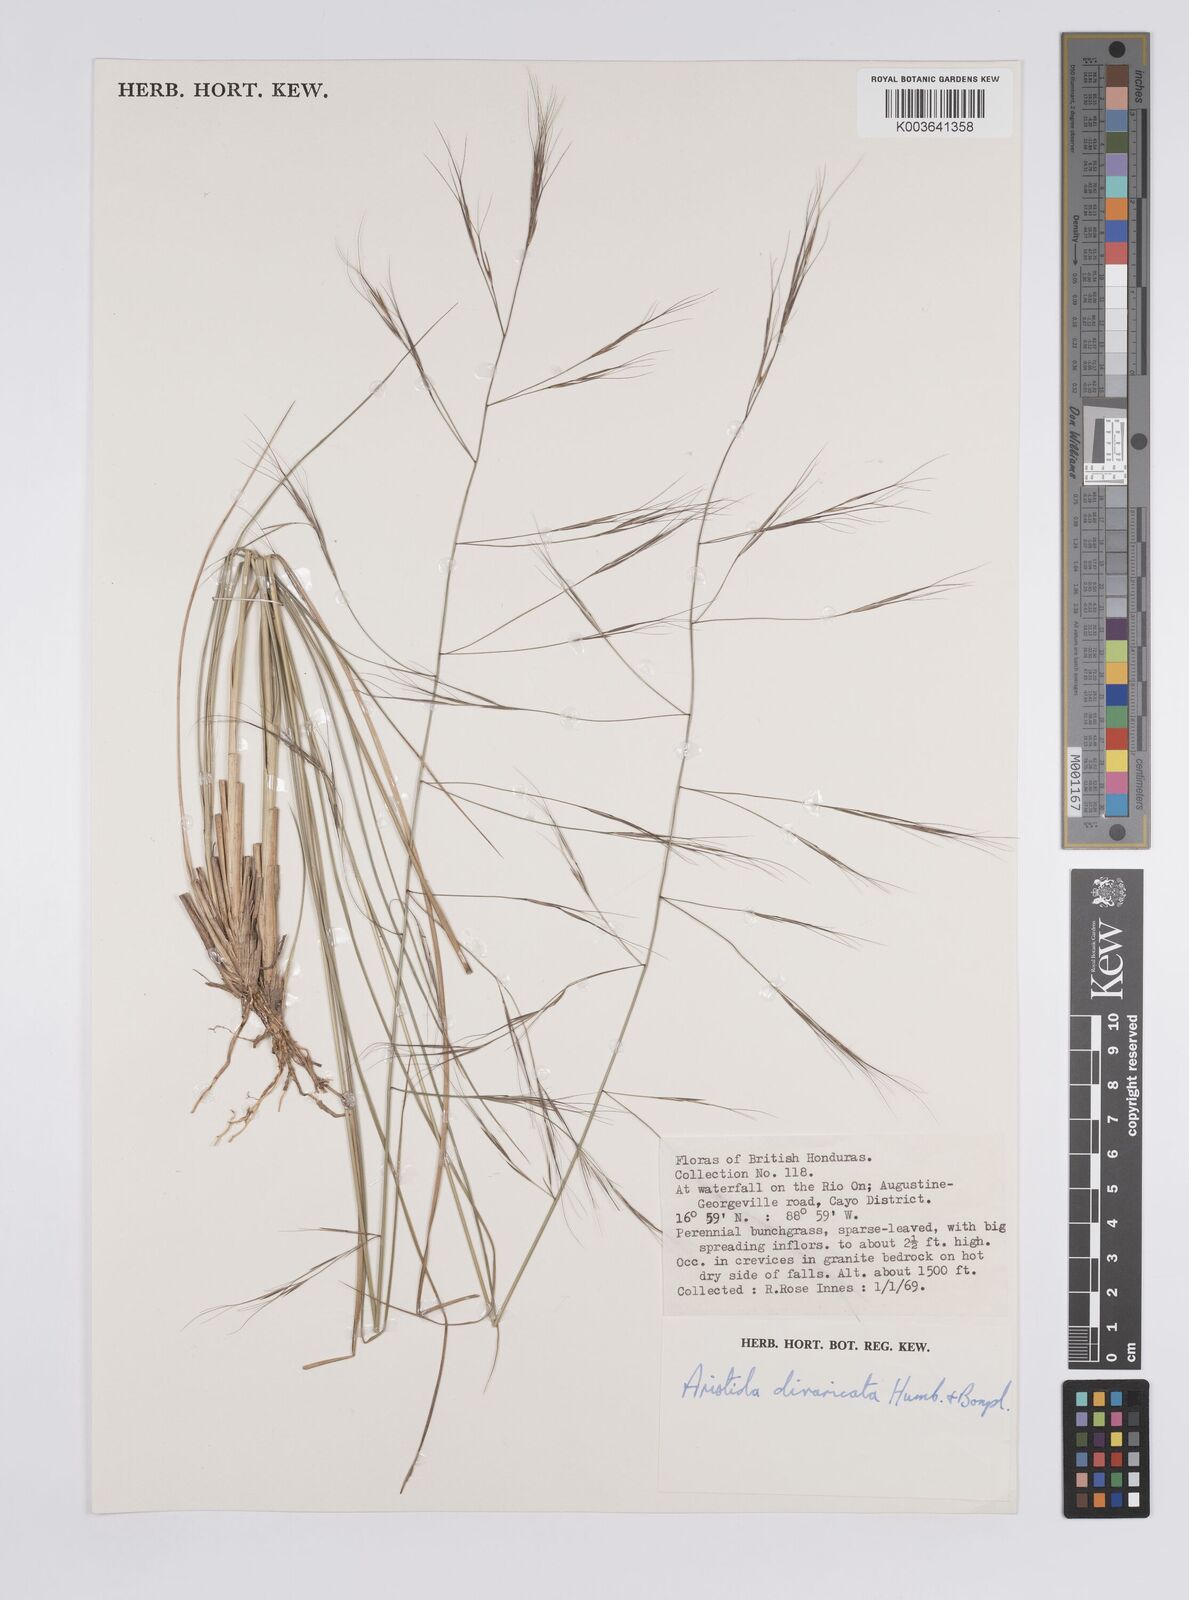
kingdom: Plantae
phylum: Tracheophyta
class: Liliopsida
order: Poales
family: Poaceae
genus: Aristida
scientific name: Aristida divaricata
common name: Poverty grass
